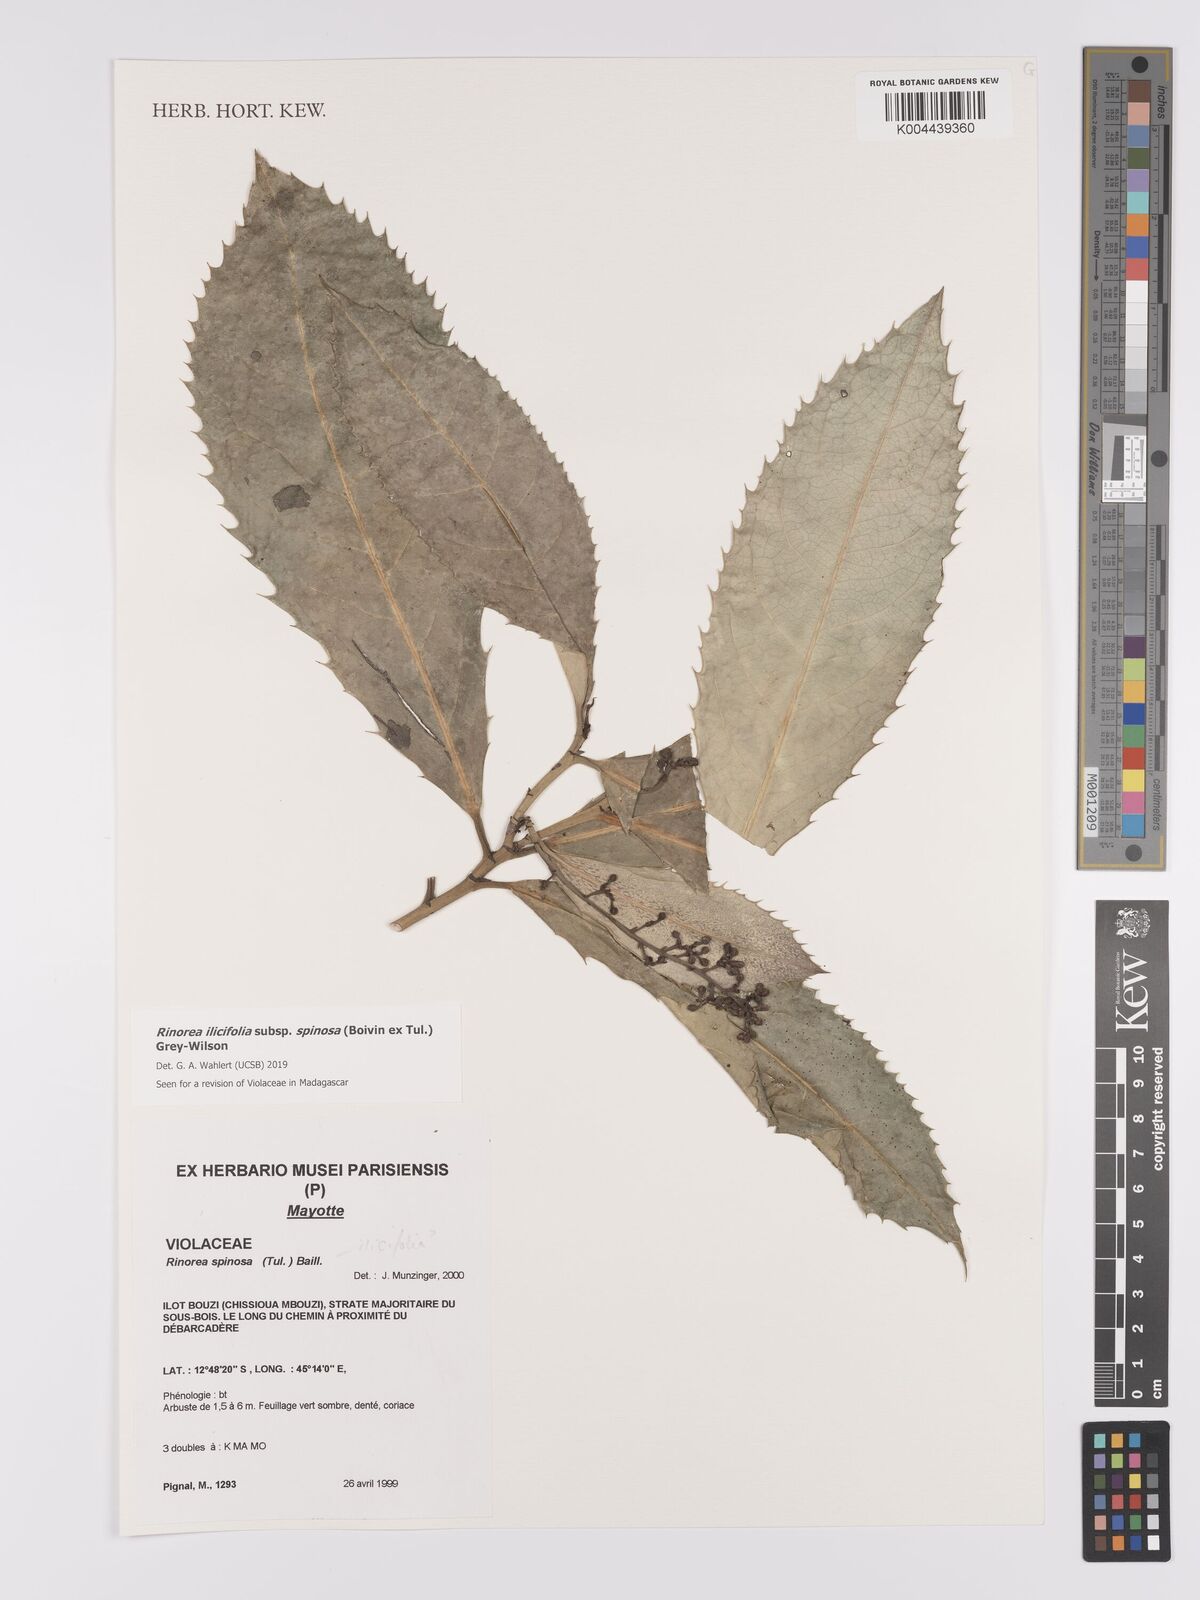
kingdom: Plantae
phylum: Tracheophyta
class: Magnoliopsida
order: Malpighiales
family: Violaceae
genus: Rinorea
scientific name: Rinorea spinosa
